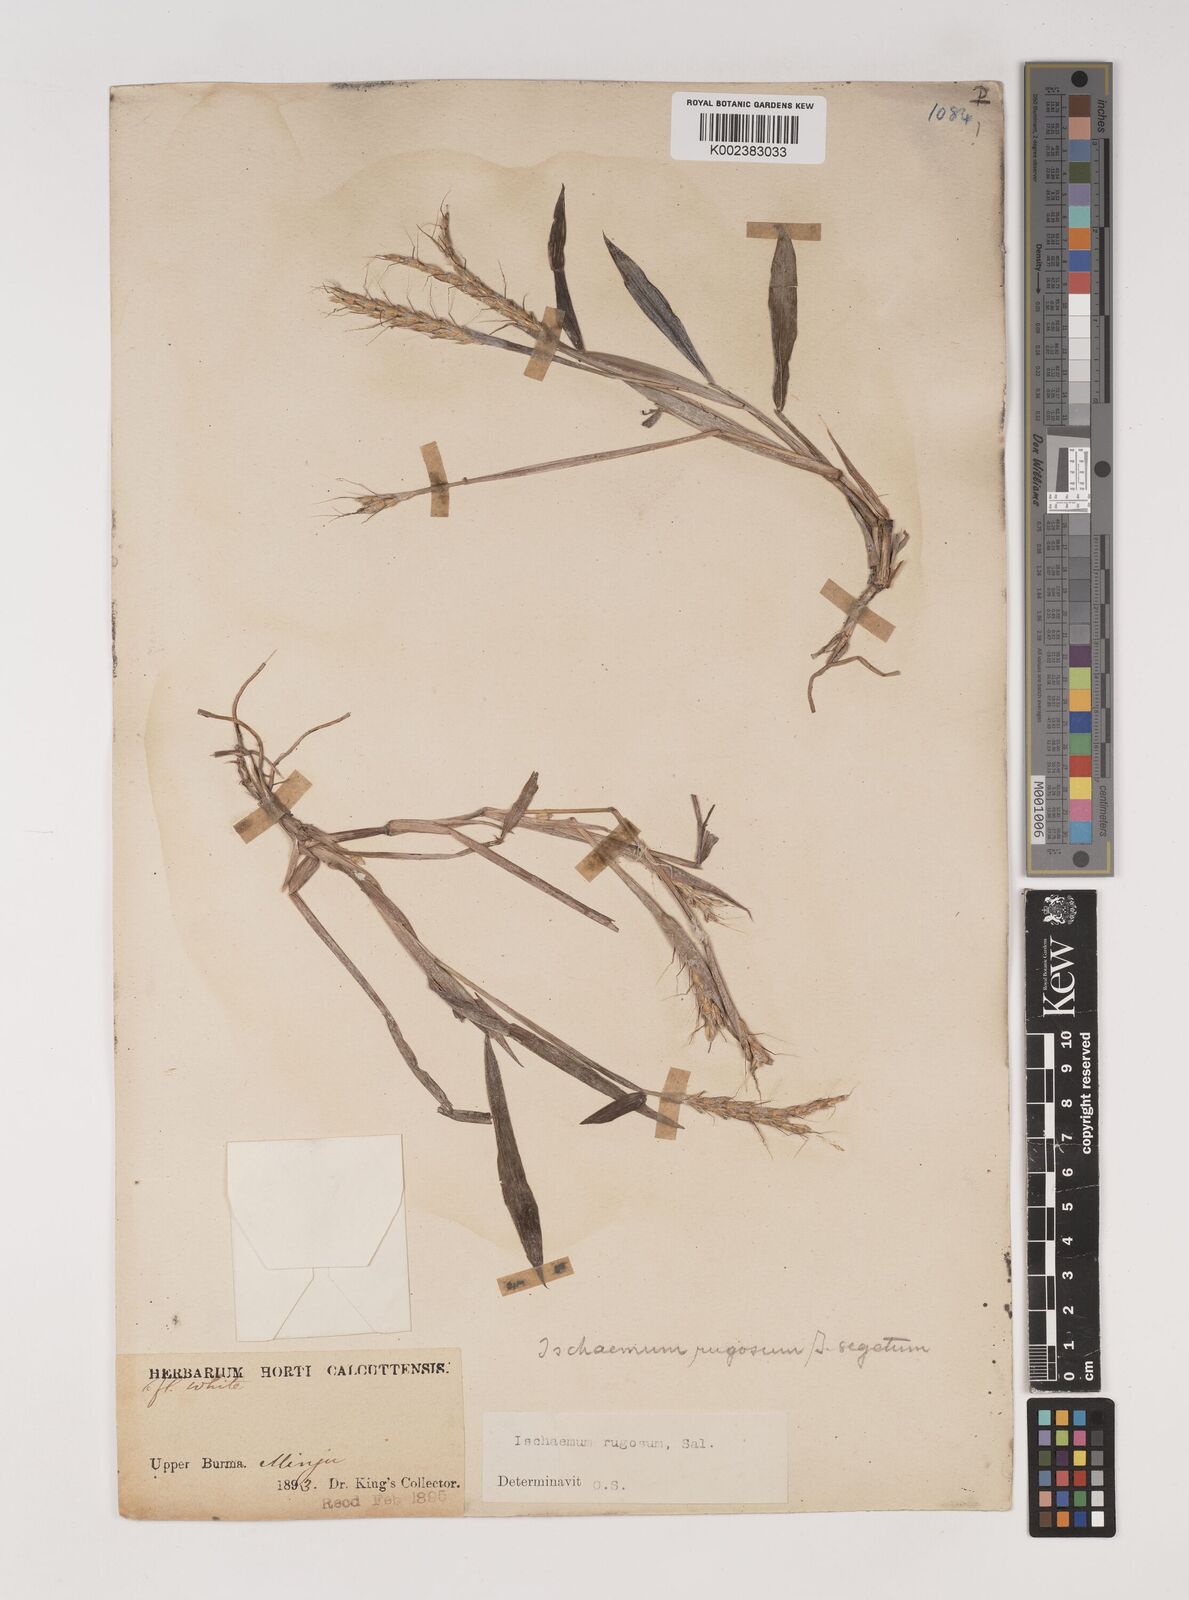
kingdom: Plantae
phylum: Tracheophyta
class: Liliopsida
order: Poales
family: Poaceae
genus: Ischaemum
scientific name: Ischaemum rugosum
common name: Saramatta grass
